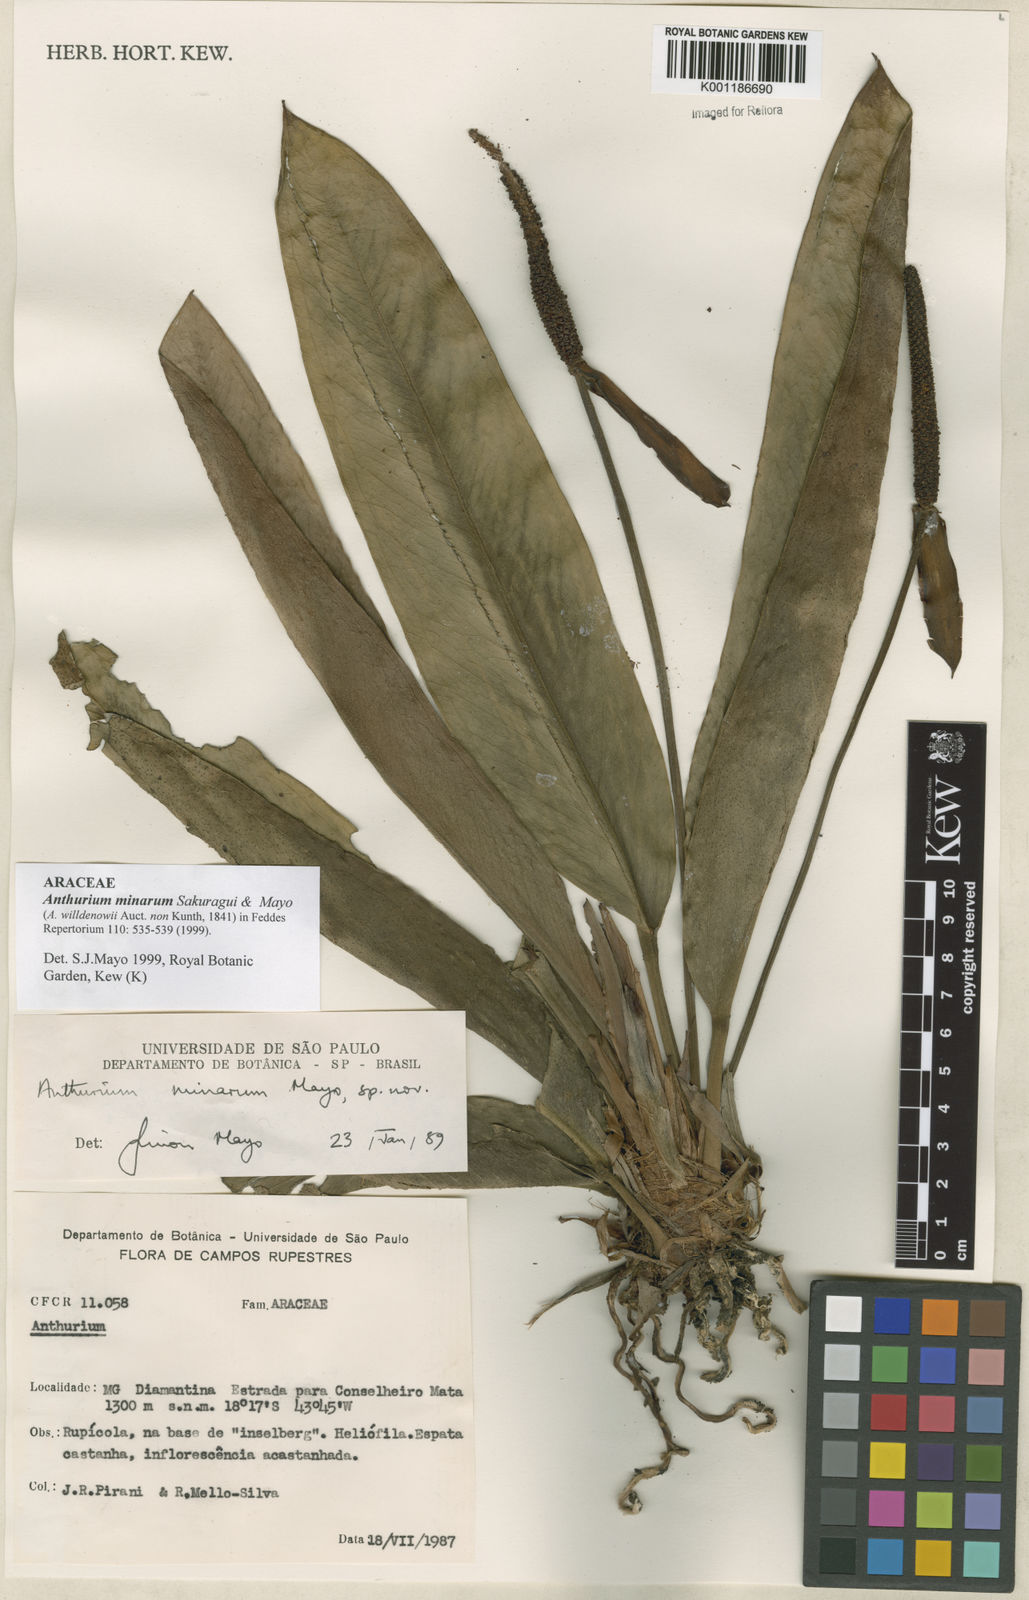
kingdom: Plantae
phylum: Tracheophyta
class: Liliopsida
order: Alismatales
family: Araceae
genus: Anthurium
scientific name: Anthurium minarum
